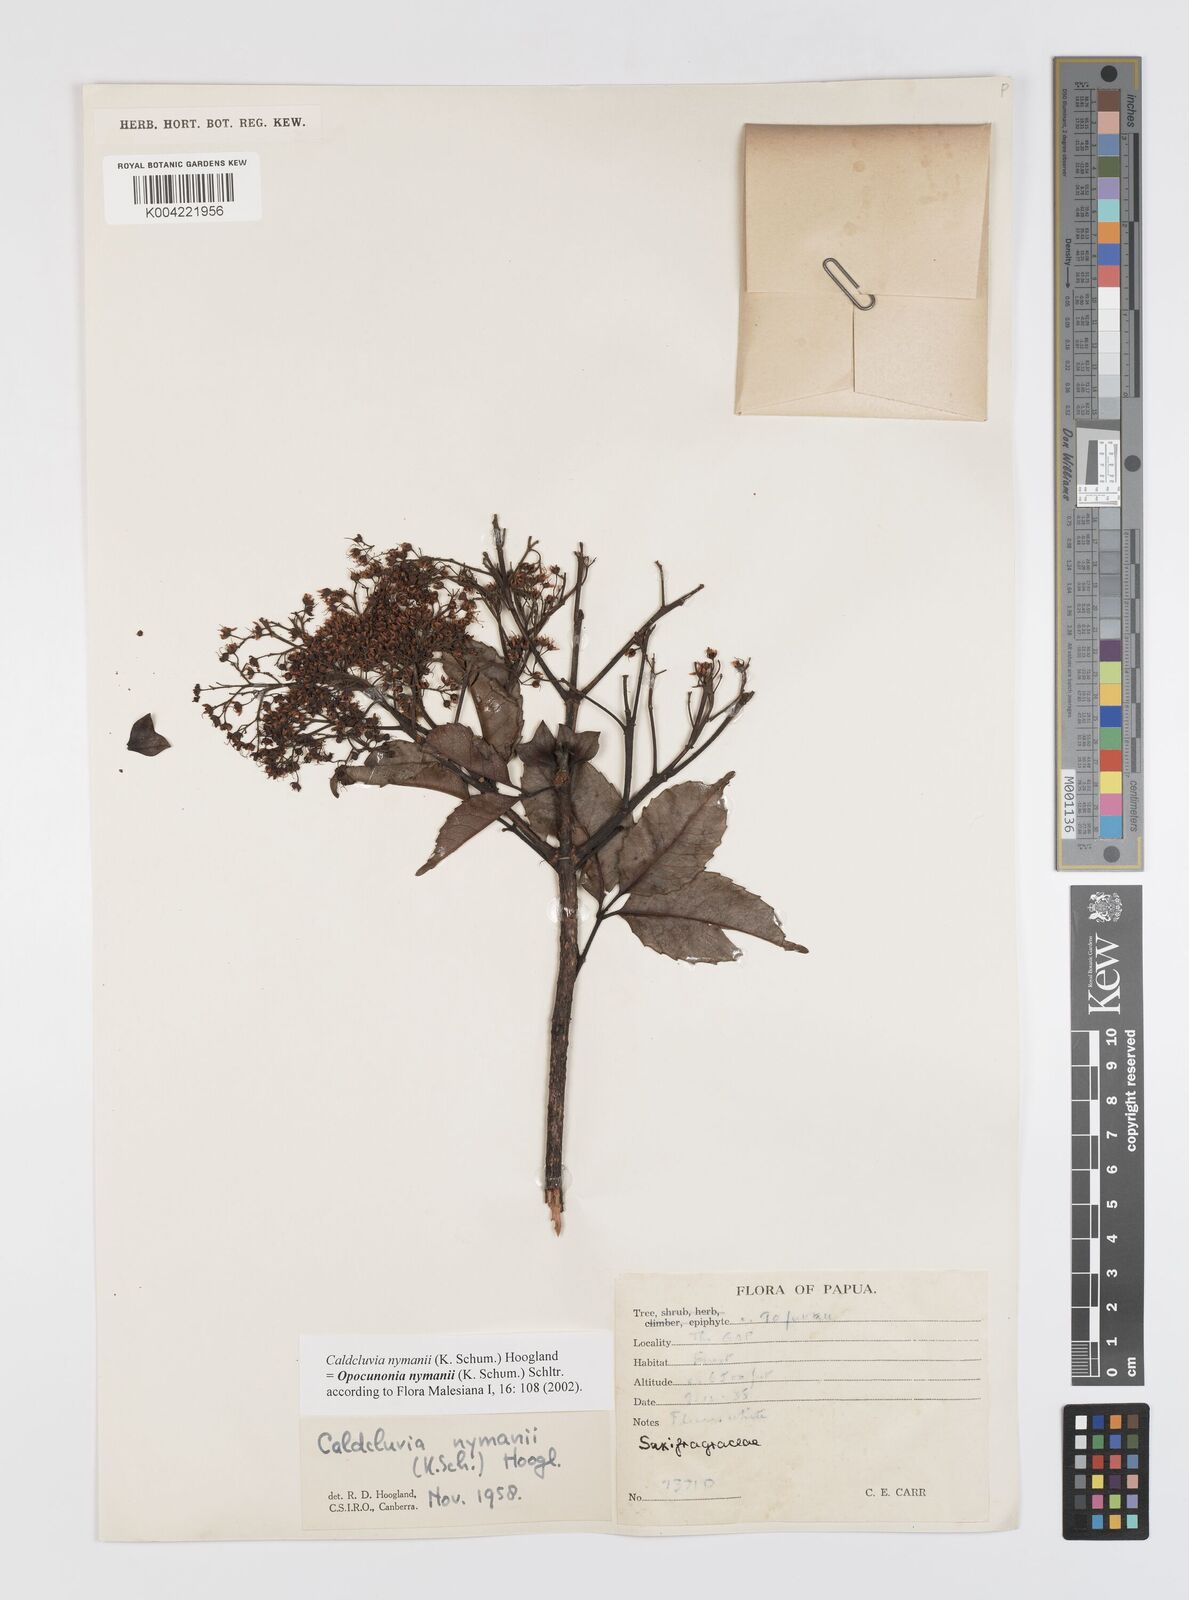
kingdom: Plantae
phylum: Tracheophyta
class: Magnoliopsida
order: Oxalidales
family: Cunoniaceae
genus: Opocunonia
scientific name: Opocunonia nymanii
